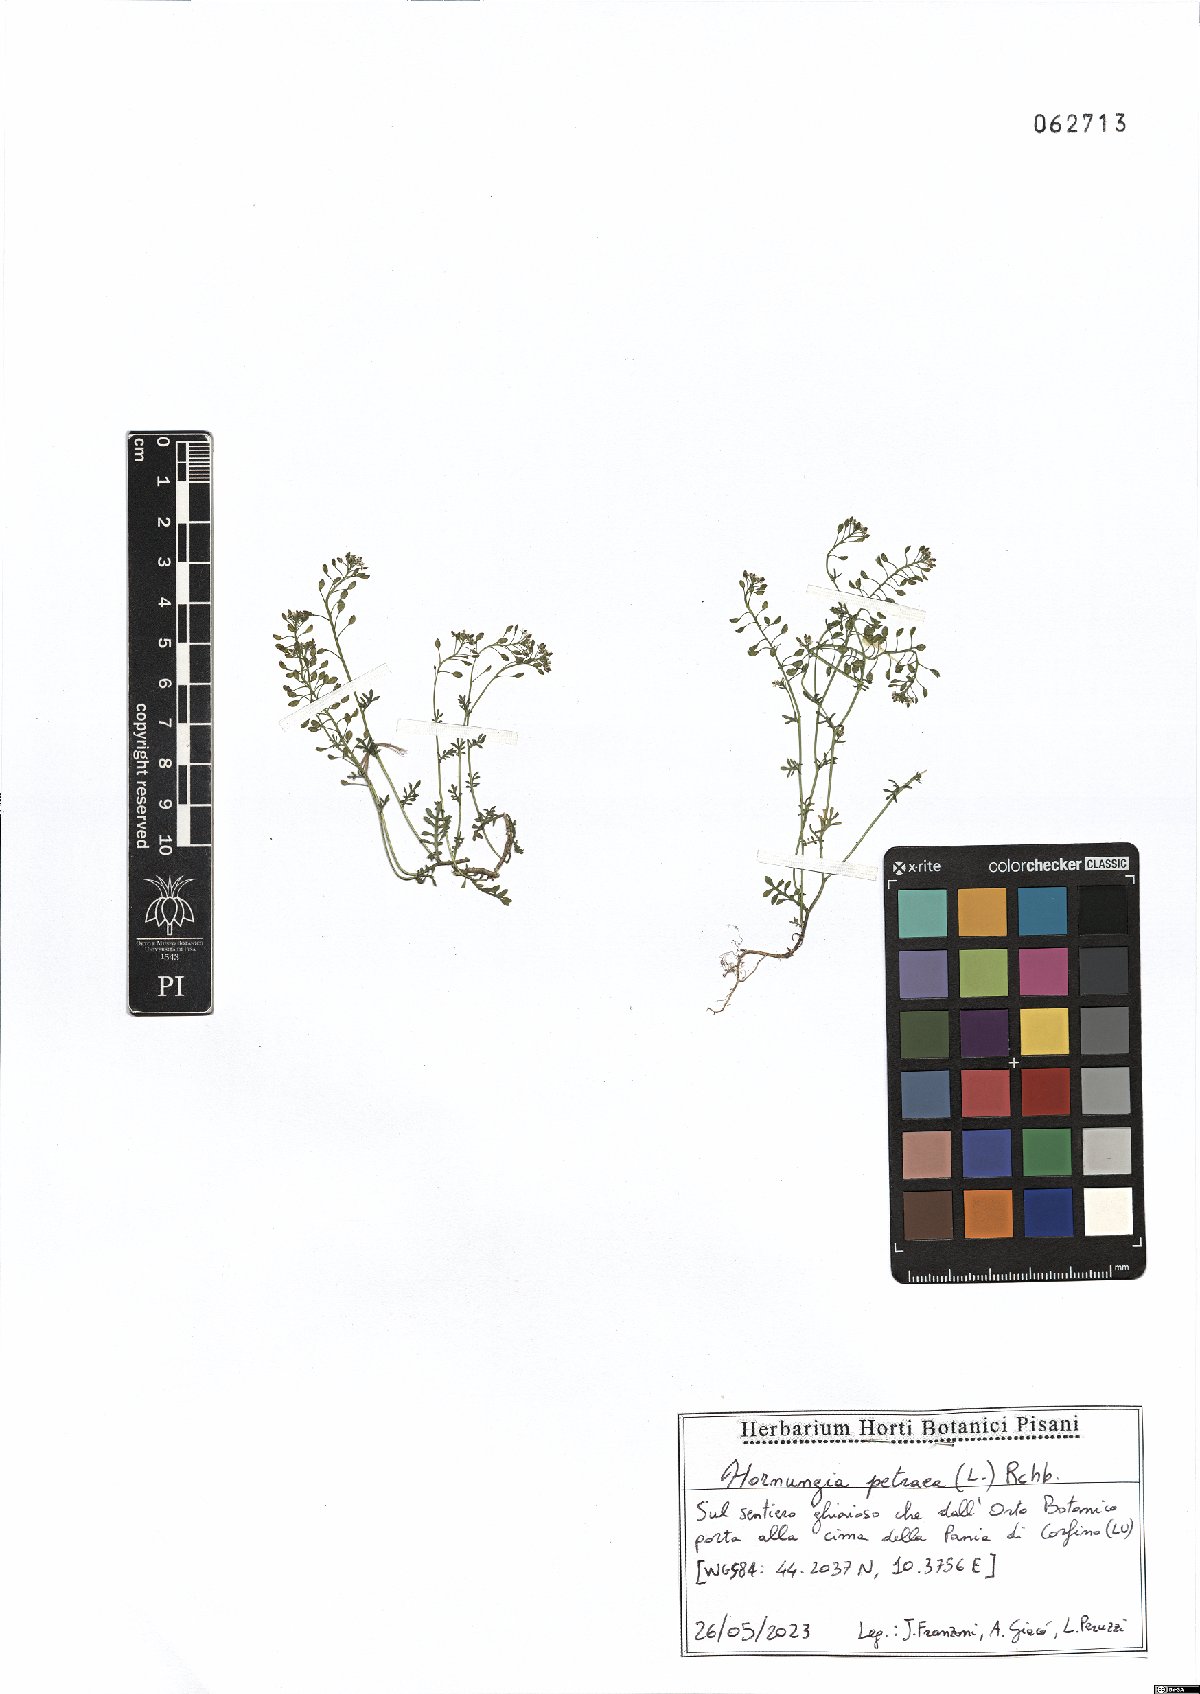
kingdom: Plantae
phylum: Tracheophyta
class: Magnoliopsida
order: Brassicales
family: Brassicaceae
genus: Hornungia
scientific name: Hornungia petraea
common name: Hutchinsia
